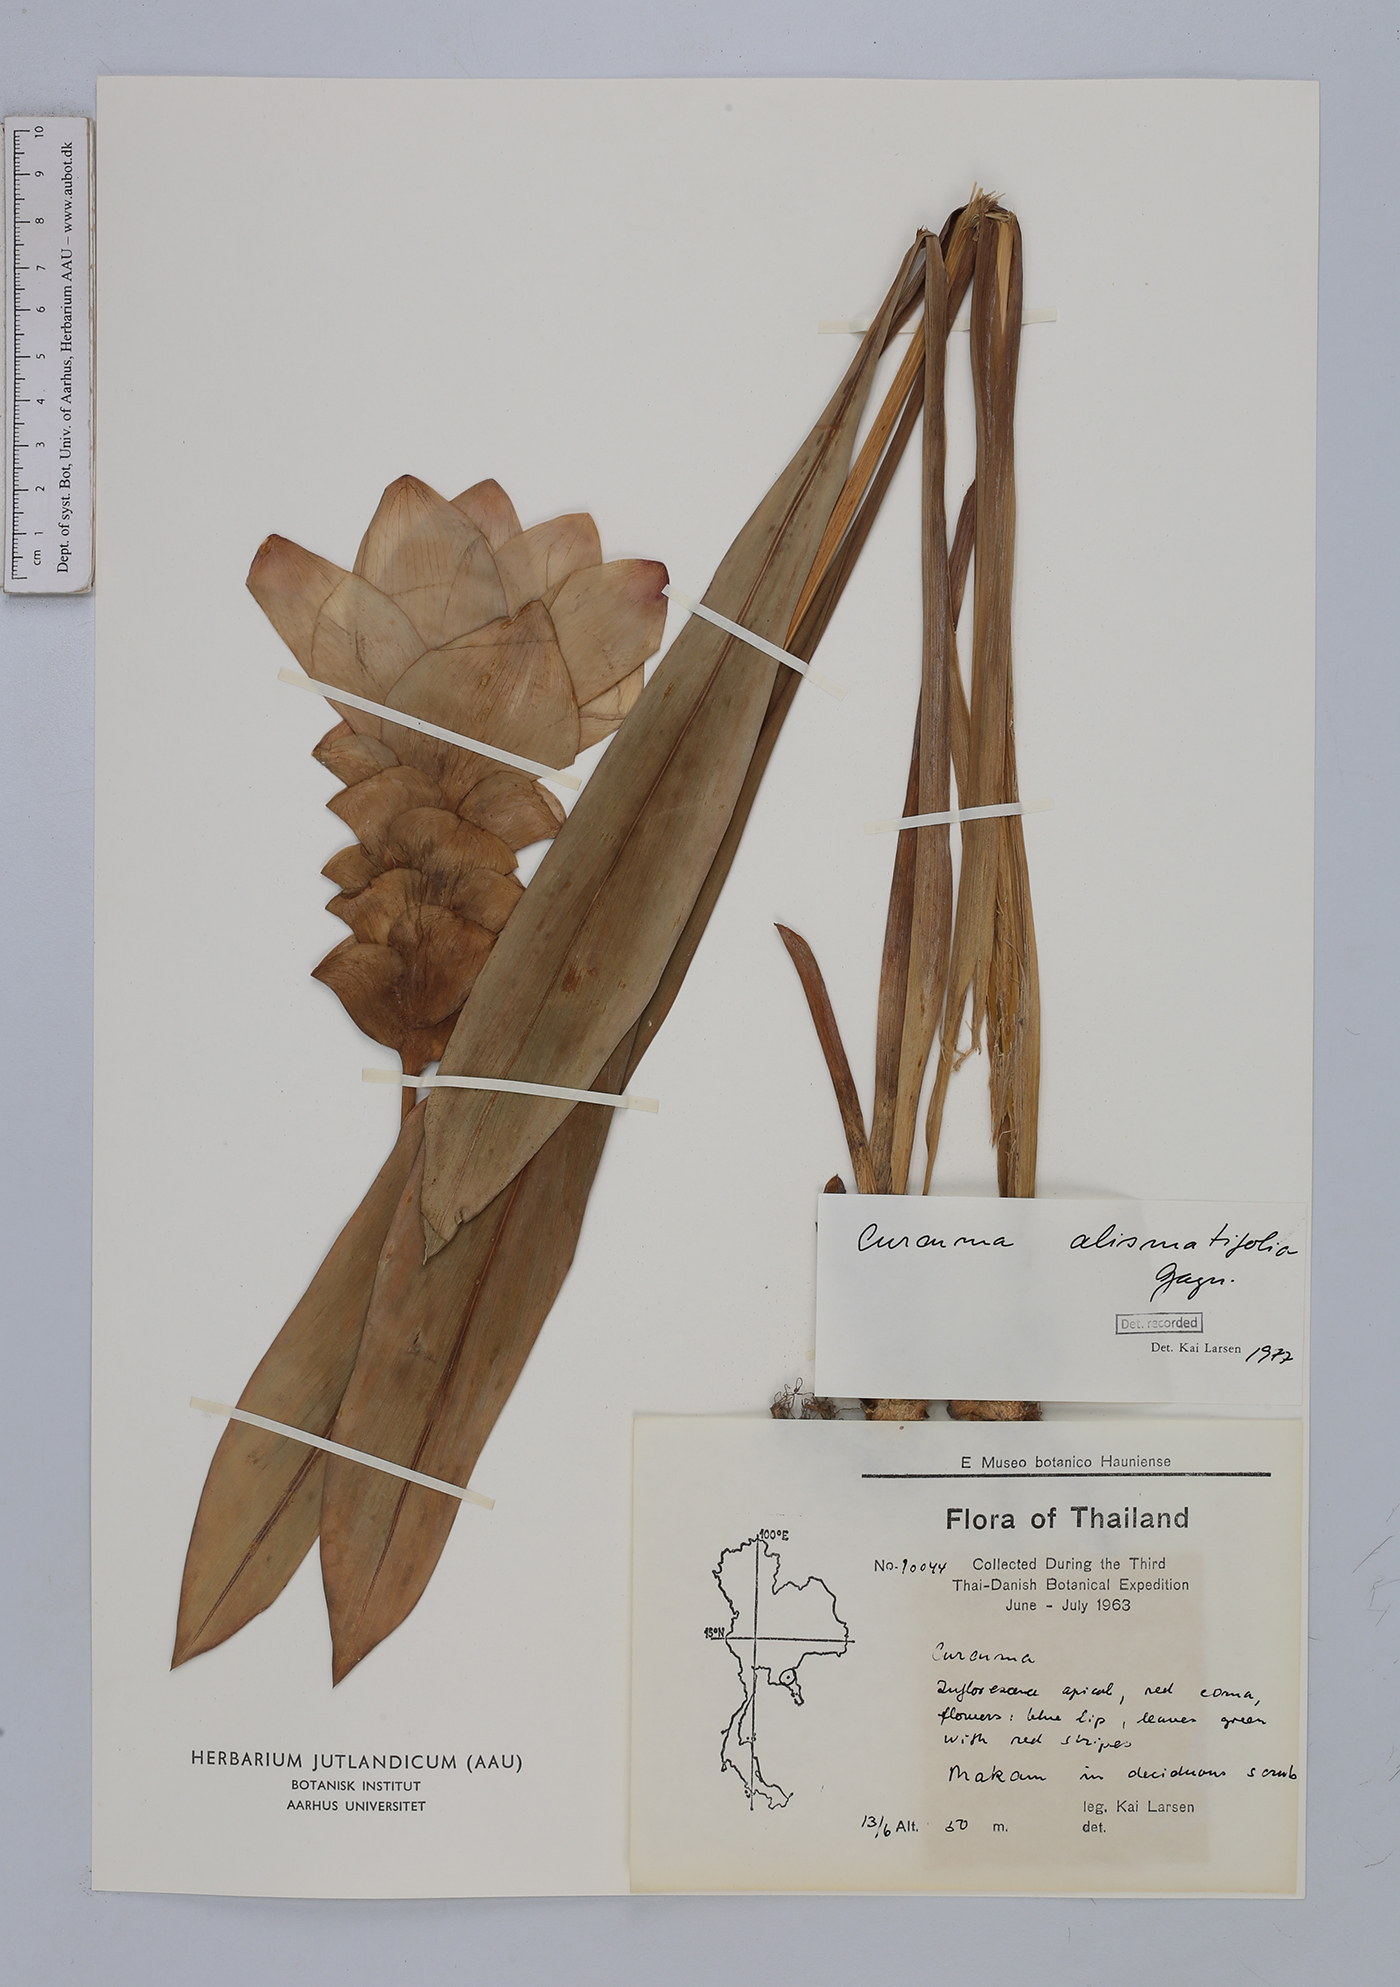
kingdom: Plantae
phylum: Tracheophyta
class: Liliopsida
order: Zingiberales
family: Zingiberaceae
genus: Curcuma
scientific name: Curcuma alismatifolia
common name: Siam tulip
